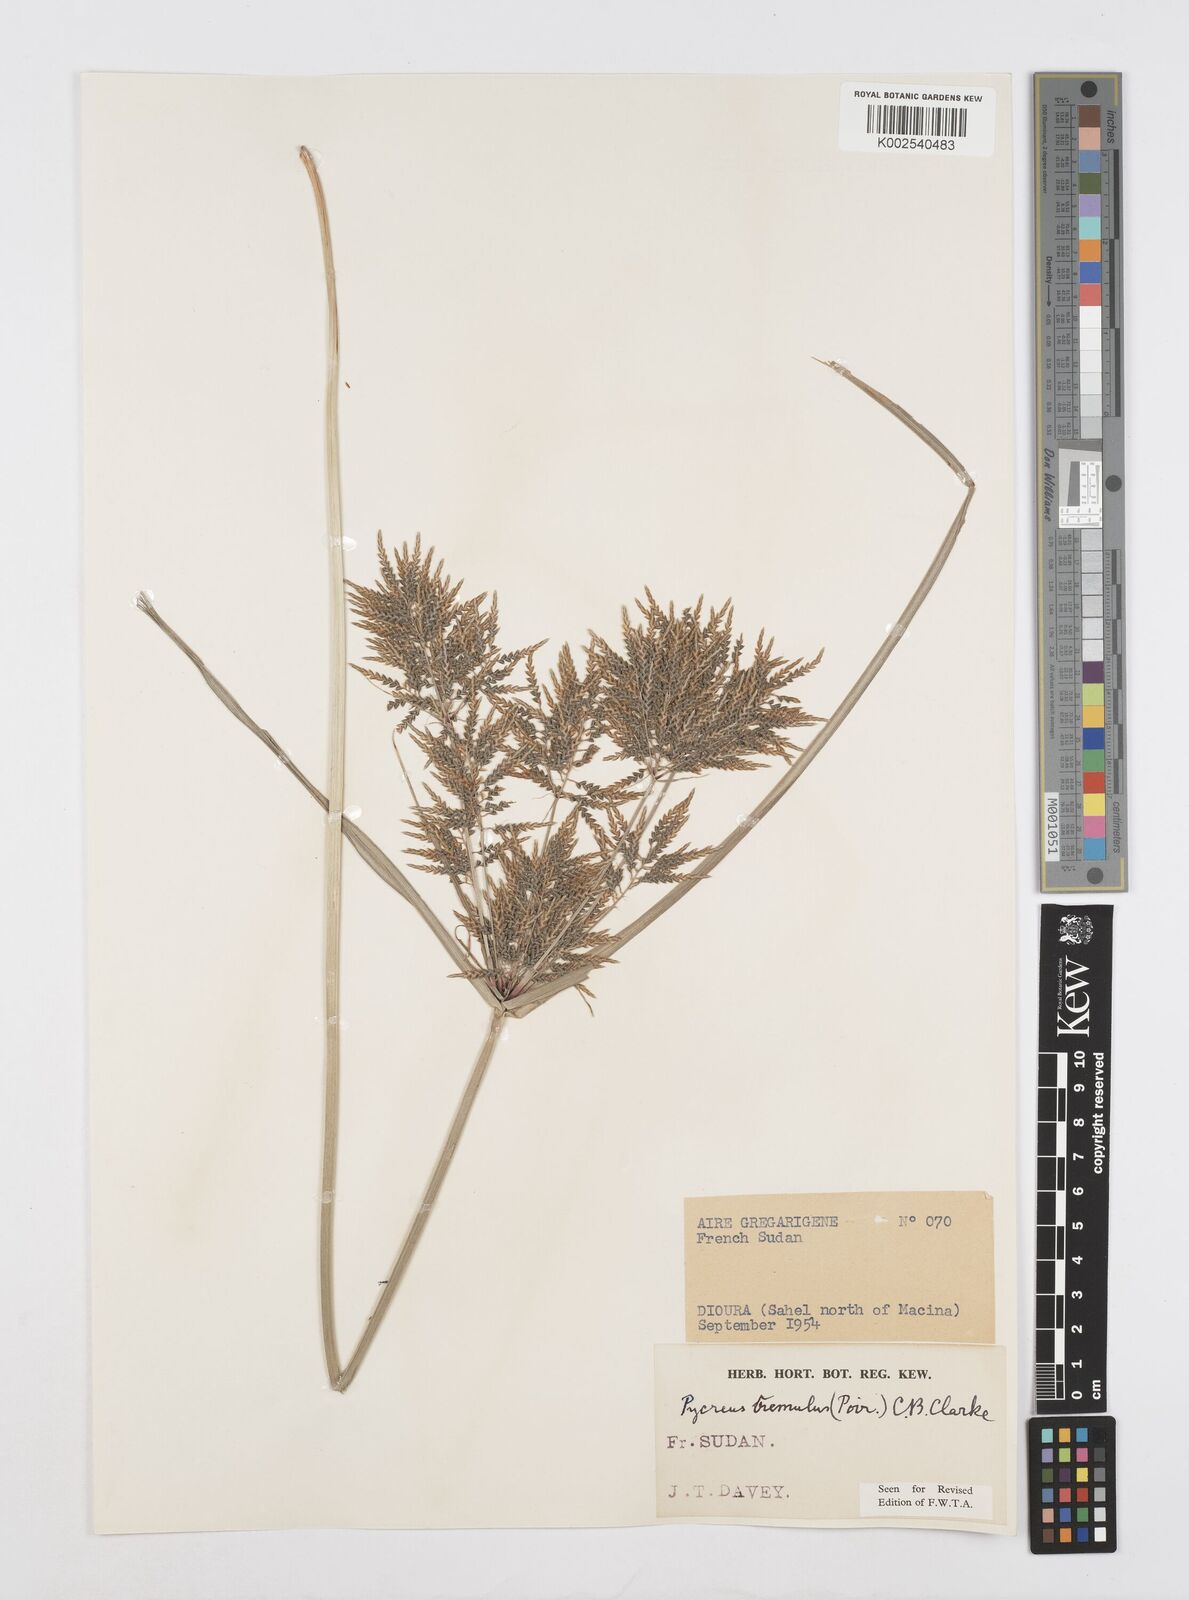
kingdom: Plantae
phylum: Tracheophyta
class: Liliopsida
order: Poales
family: Cyperaceae
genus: Cyperus
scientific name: Cyperus macrostachyos
